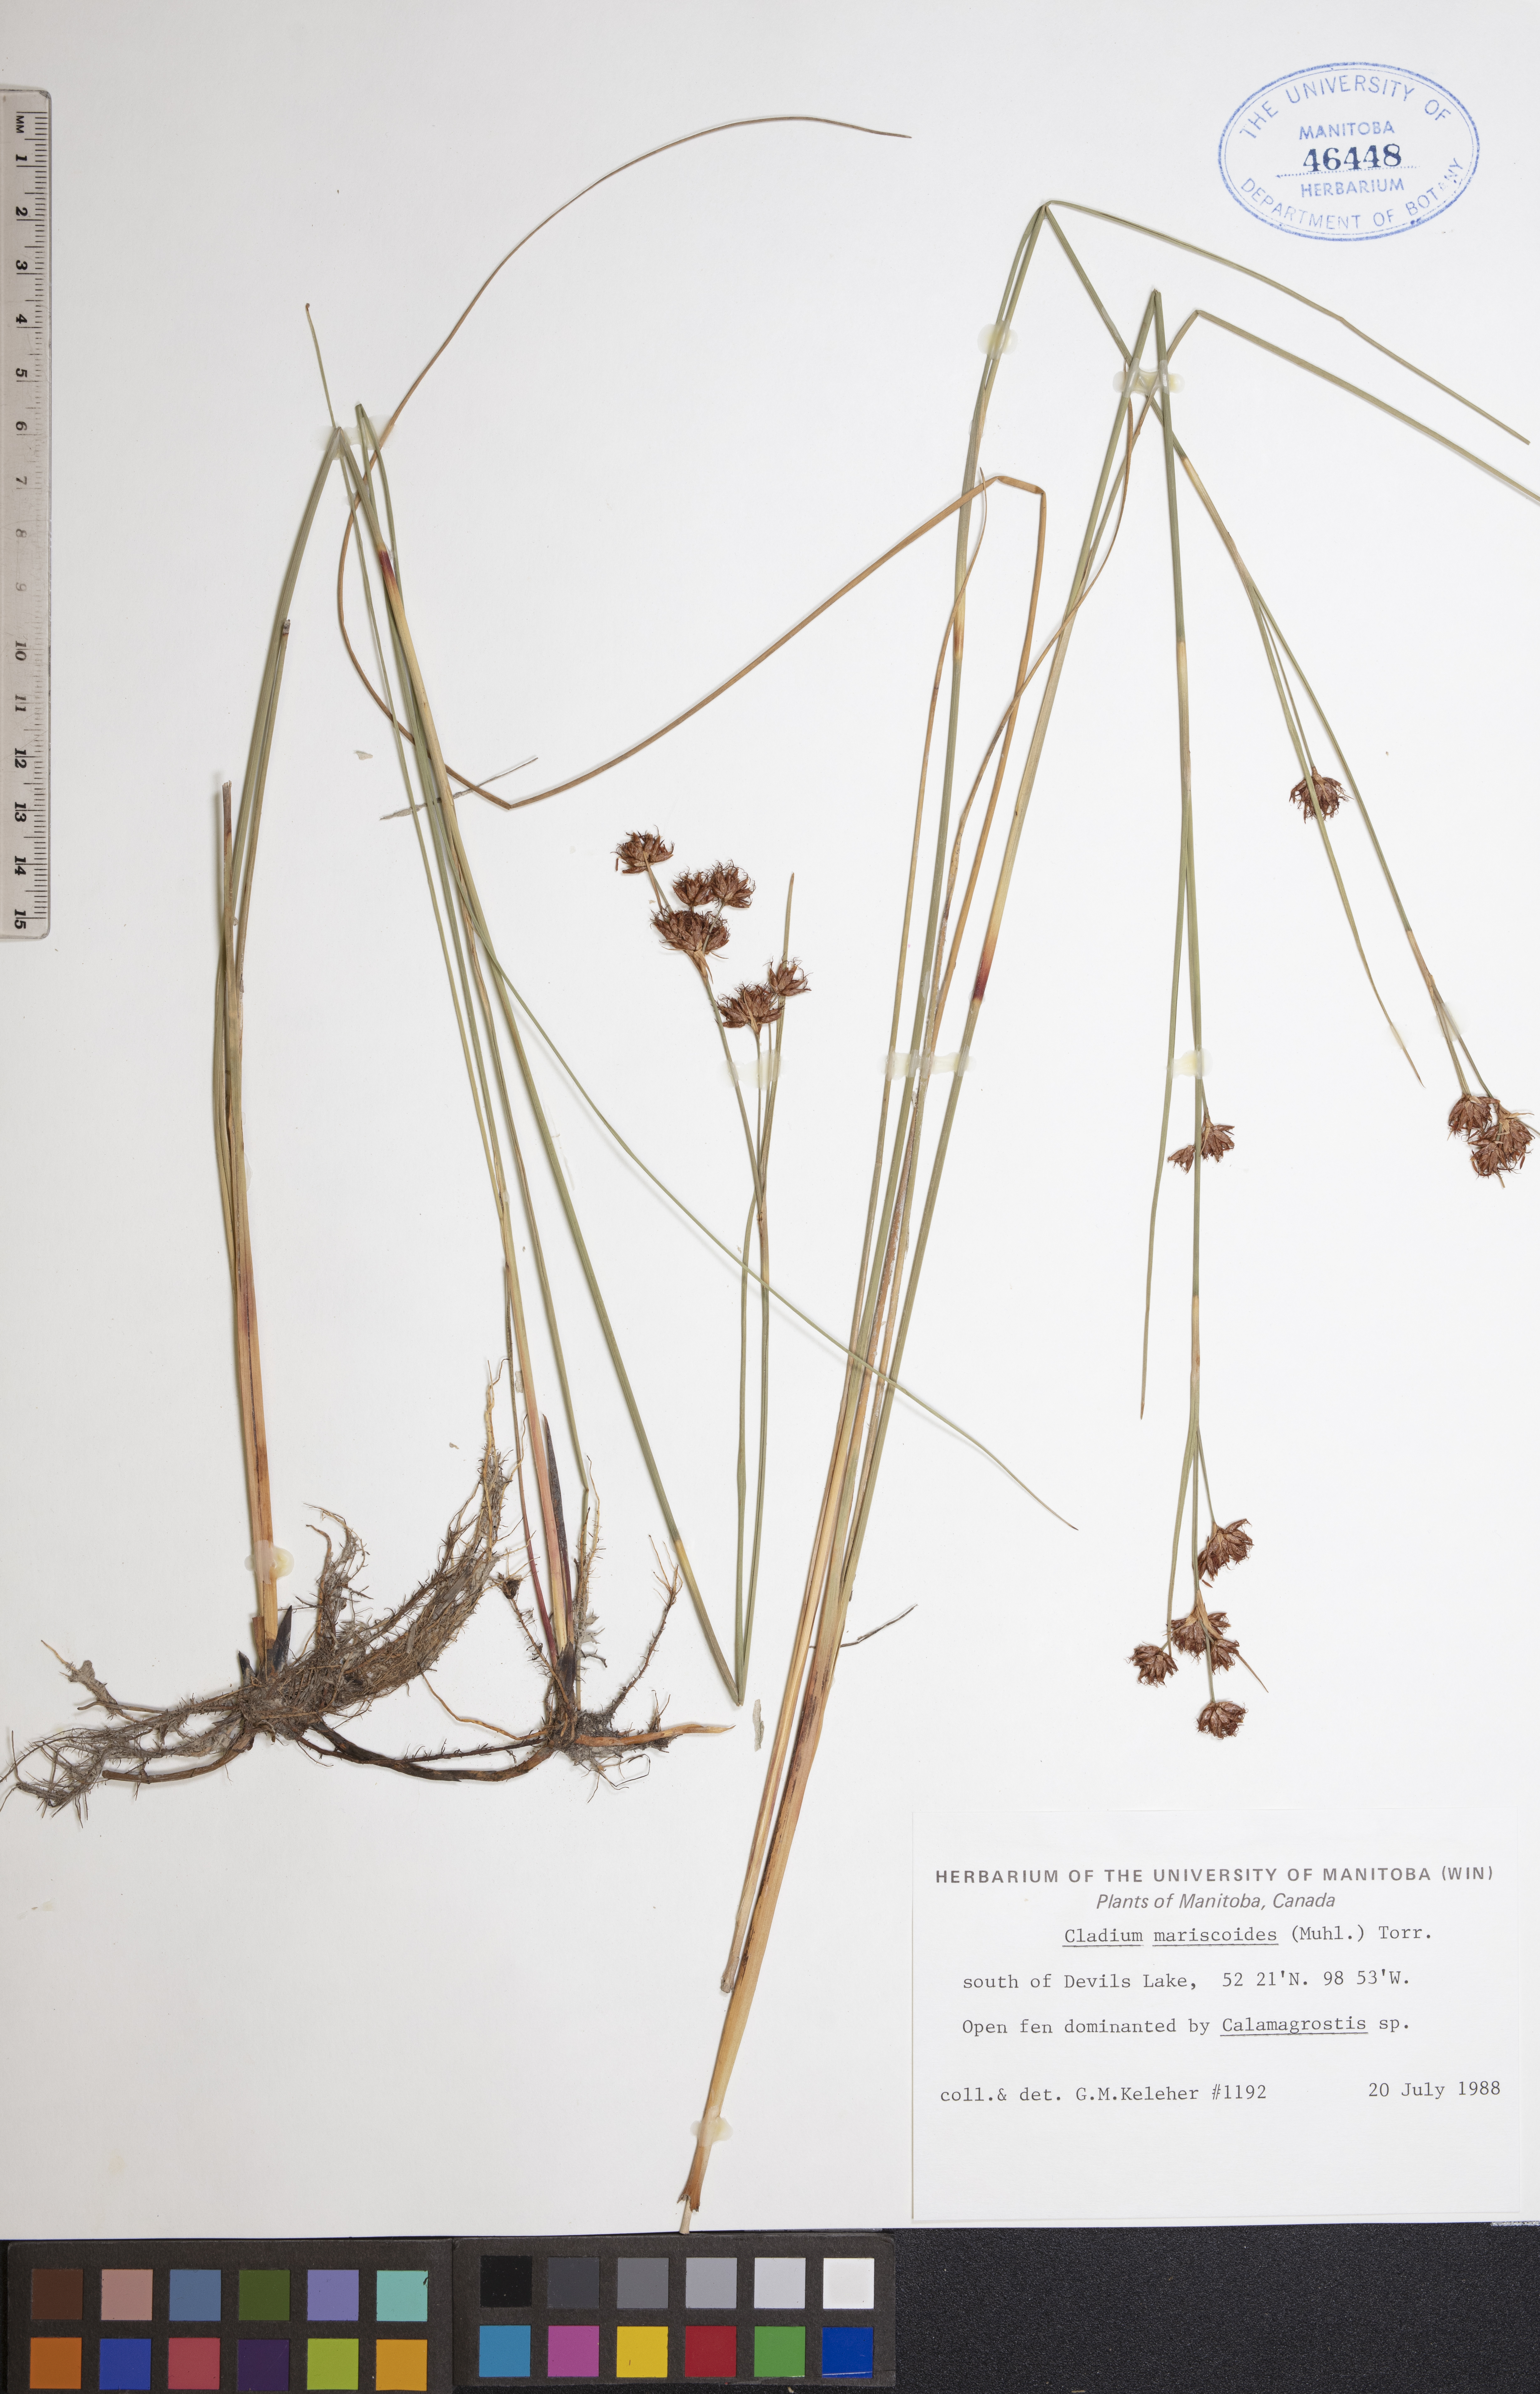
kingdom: Plantae
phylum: Tracheophyta
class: Liliopsida
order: Poales
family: Cyperaceae
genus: Cladium
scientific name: Cladium mariscoides
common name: Smooth sawgrass
